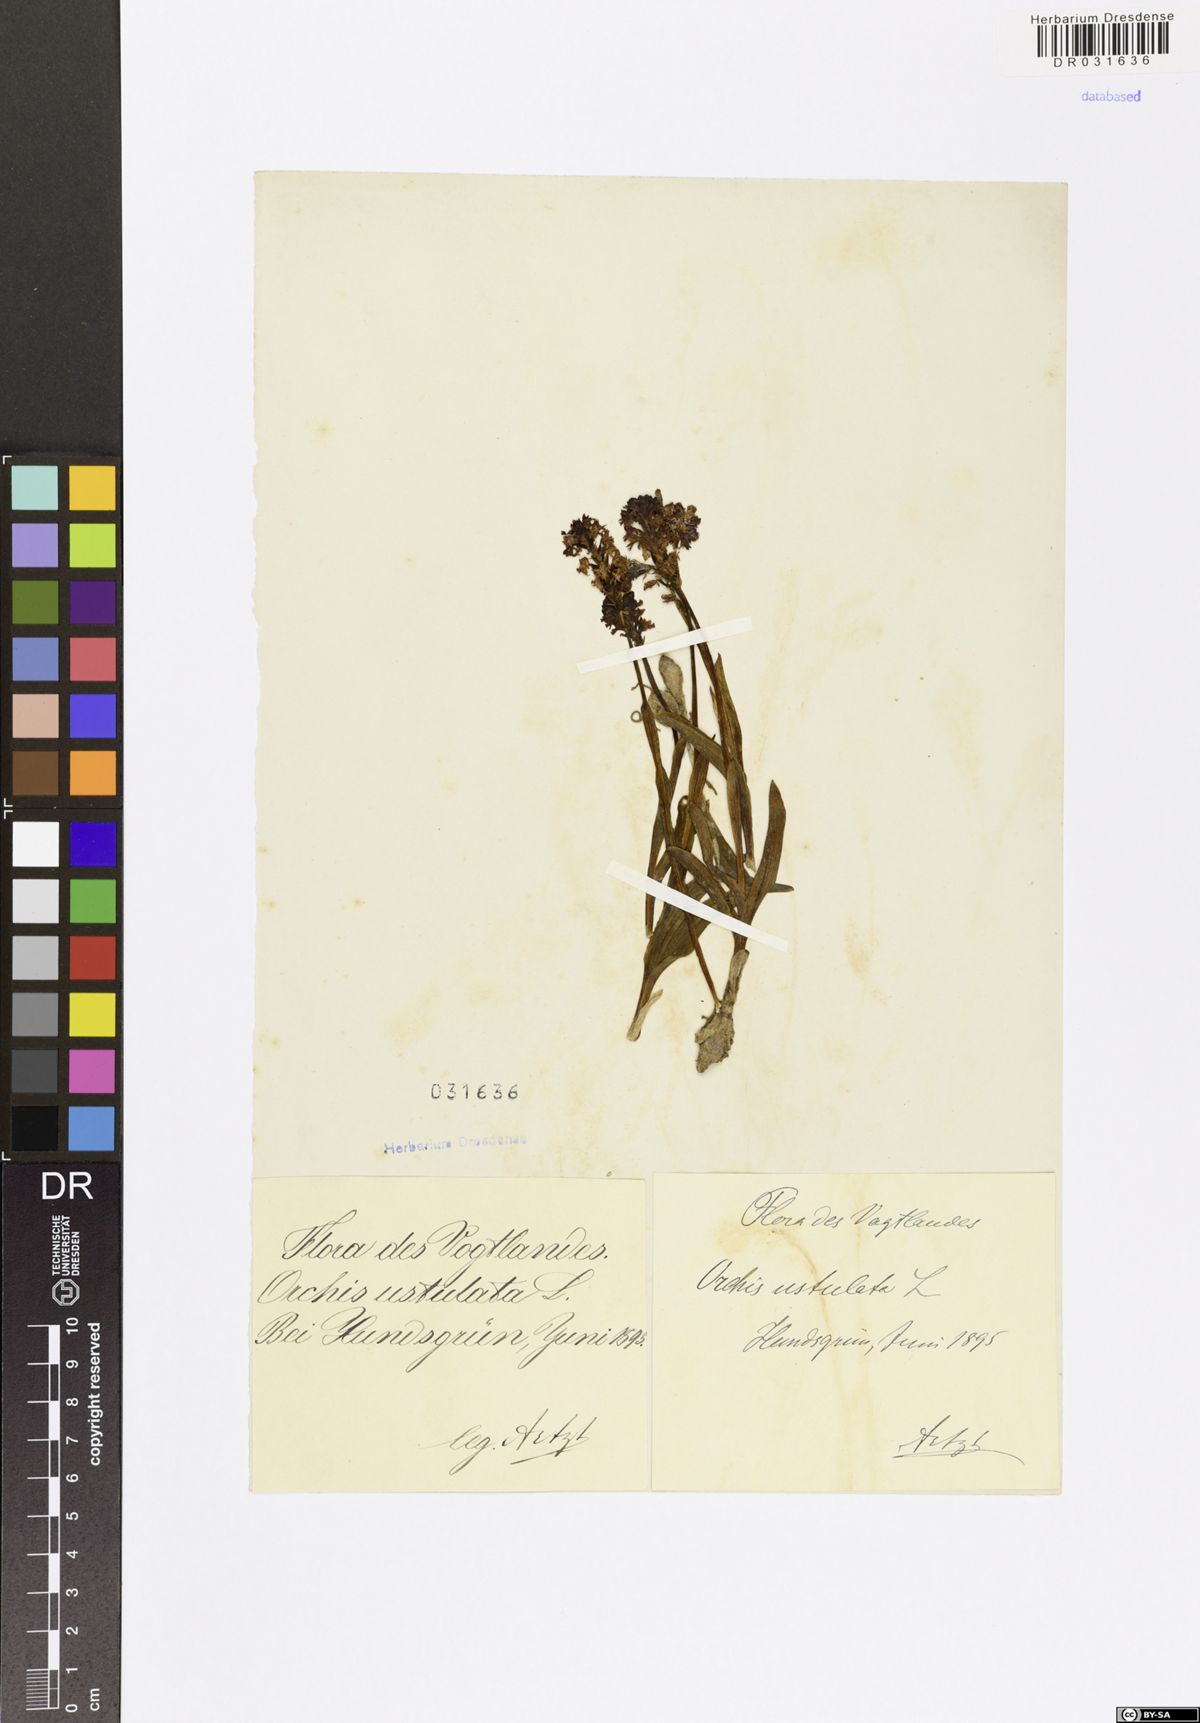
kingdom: Plantae
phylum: Tracheophyta
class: Liliopsida
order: Asparagales
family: Orchidaceae
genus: Neotinea
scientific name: Neotinea ustulata
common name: Burnt orchid
